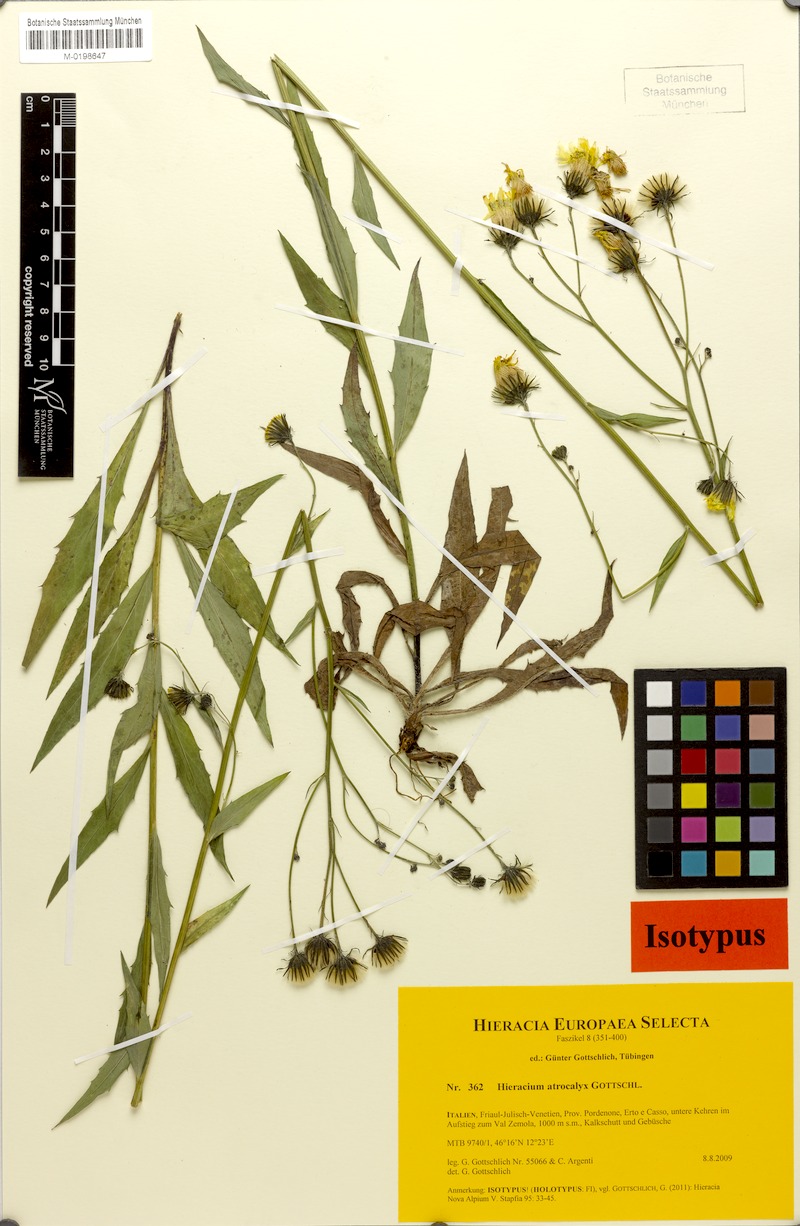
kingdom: Plantae
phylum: Tracheophyta
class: Magnoliopsida
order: Asterales
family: Asteraceae
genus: Hieracium
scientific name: Hieracium atrocalyx
